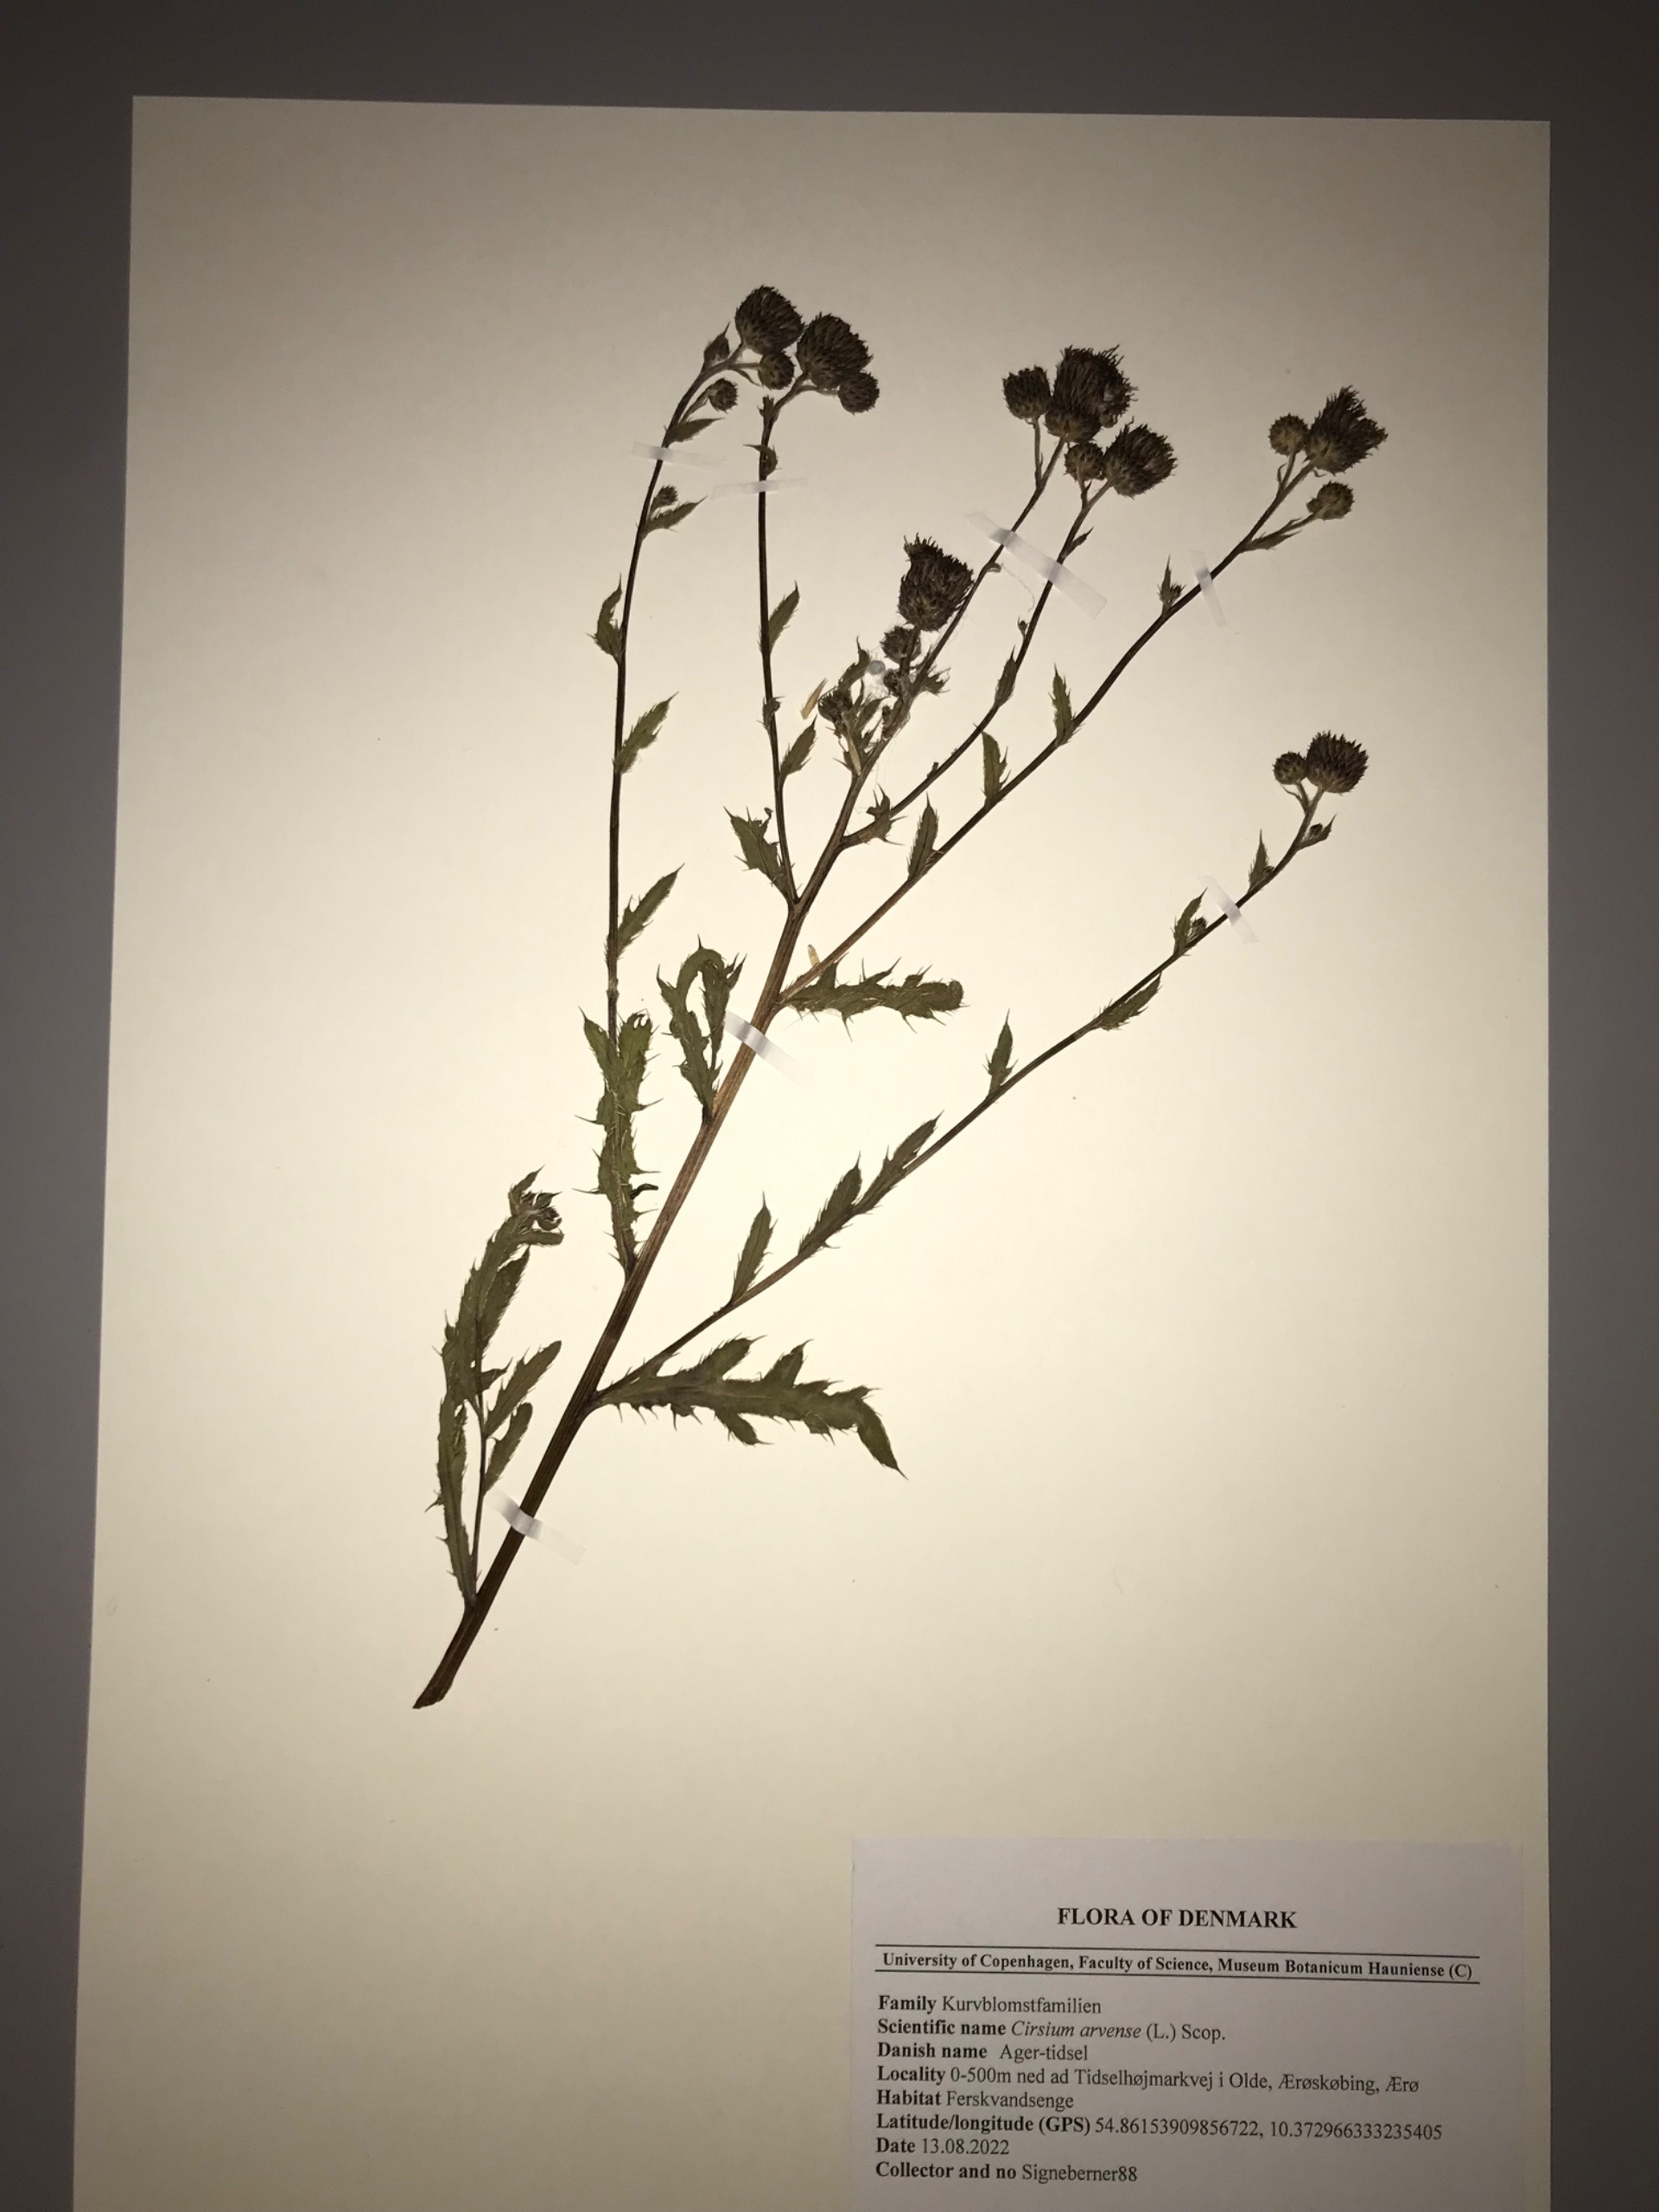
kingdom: Plantae
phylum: Tracheophyta
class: Magnoliopsida
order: Asterales
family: Asteraceae
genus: Cirsium
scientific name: Cirsium arvense
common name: Ager-tidsel
